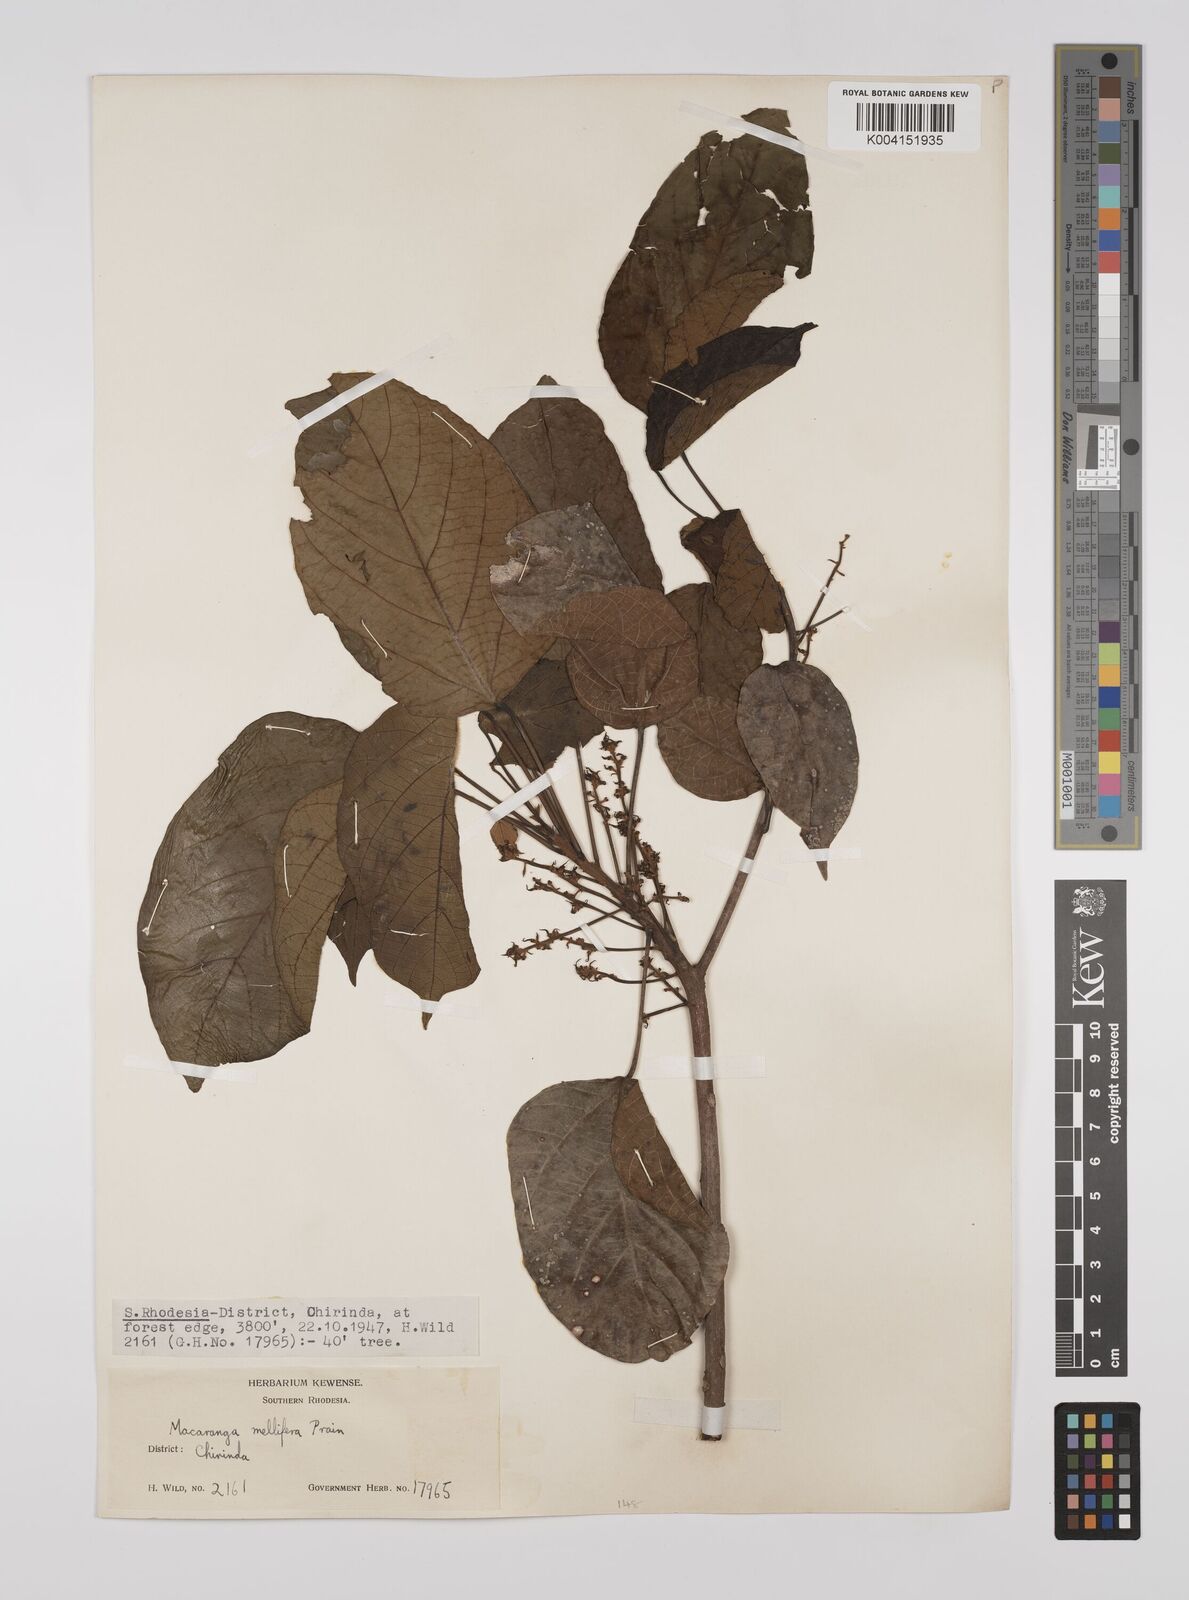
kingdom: Plantae
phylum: Tracheophyta
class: Magnoliopsida
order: Malpighiales
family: Euphorbiaceae
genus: Macaranga
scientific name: Macaranga mellifera
